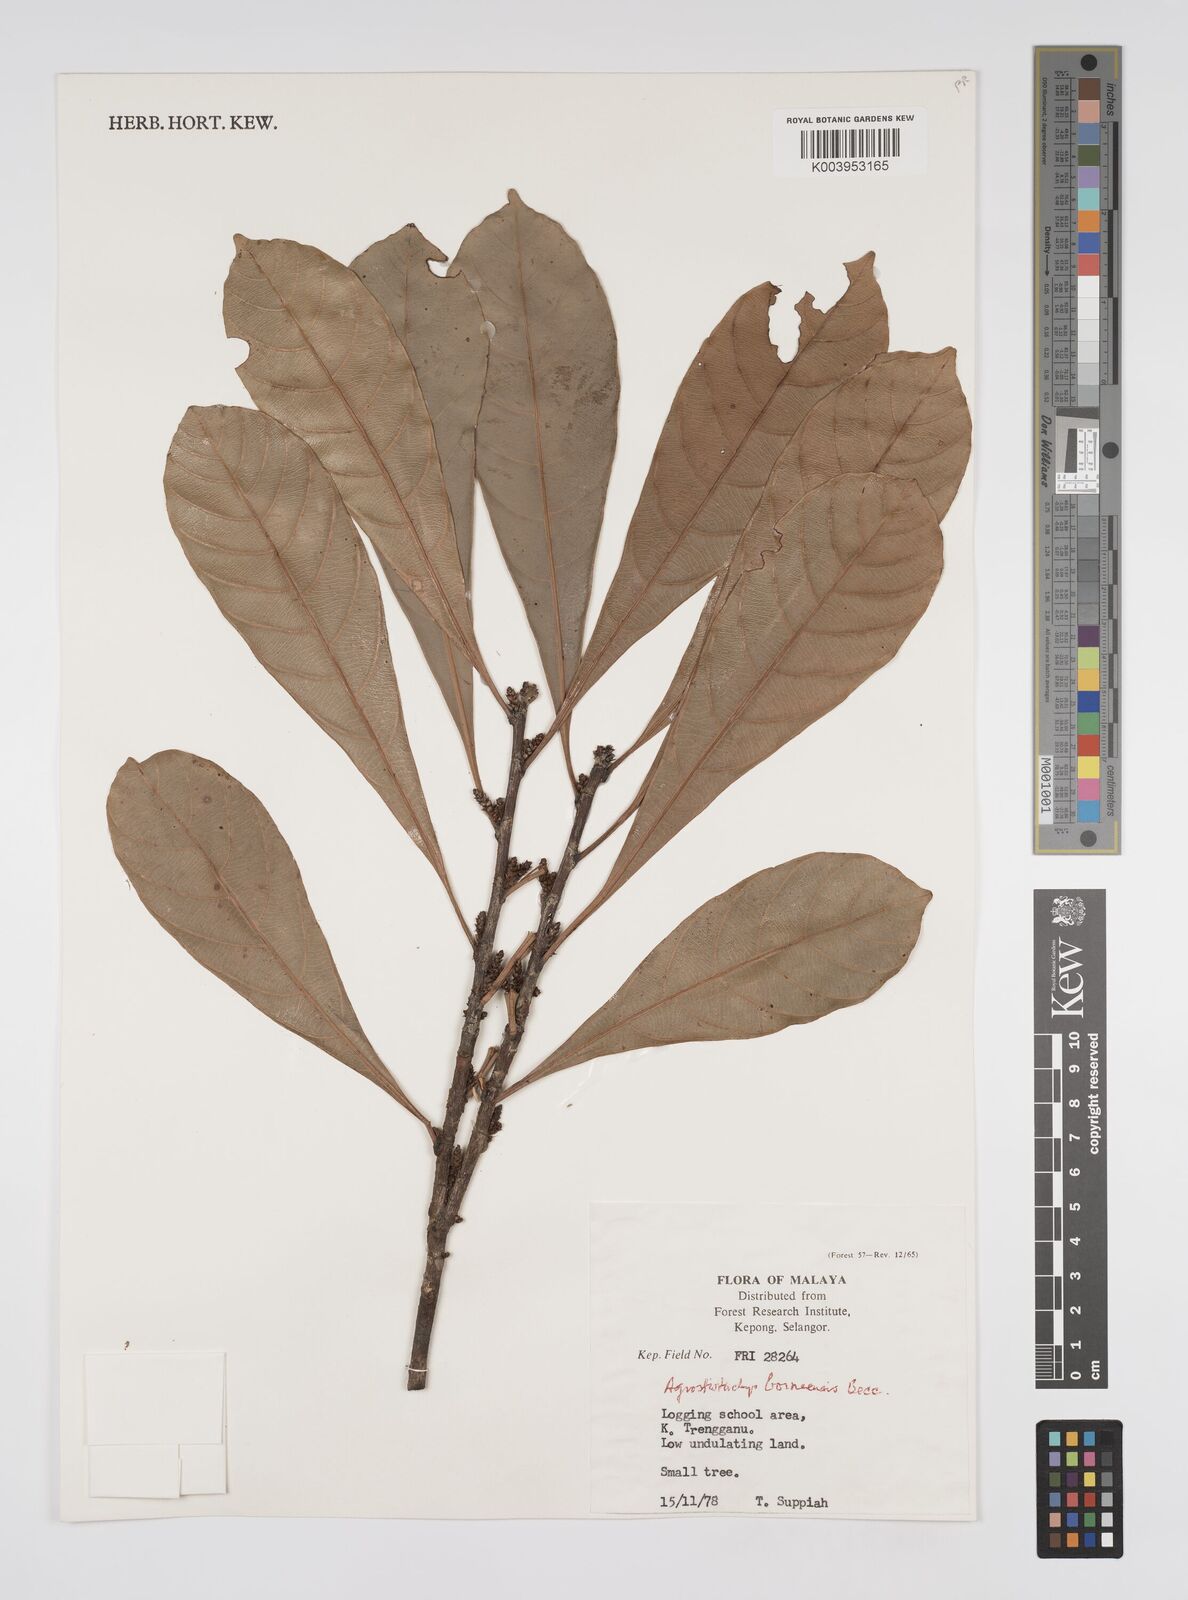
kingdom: Plantae
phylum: Tracheophyta
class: Magnoliopsida
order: Malpighiales
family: Euphorbiaceae
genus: Agrostistachys
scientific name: Agrostistachys borneensis
